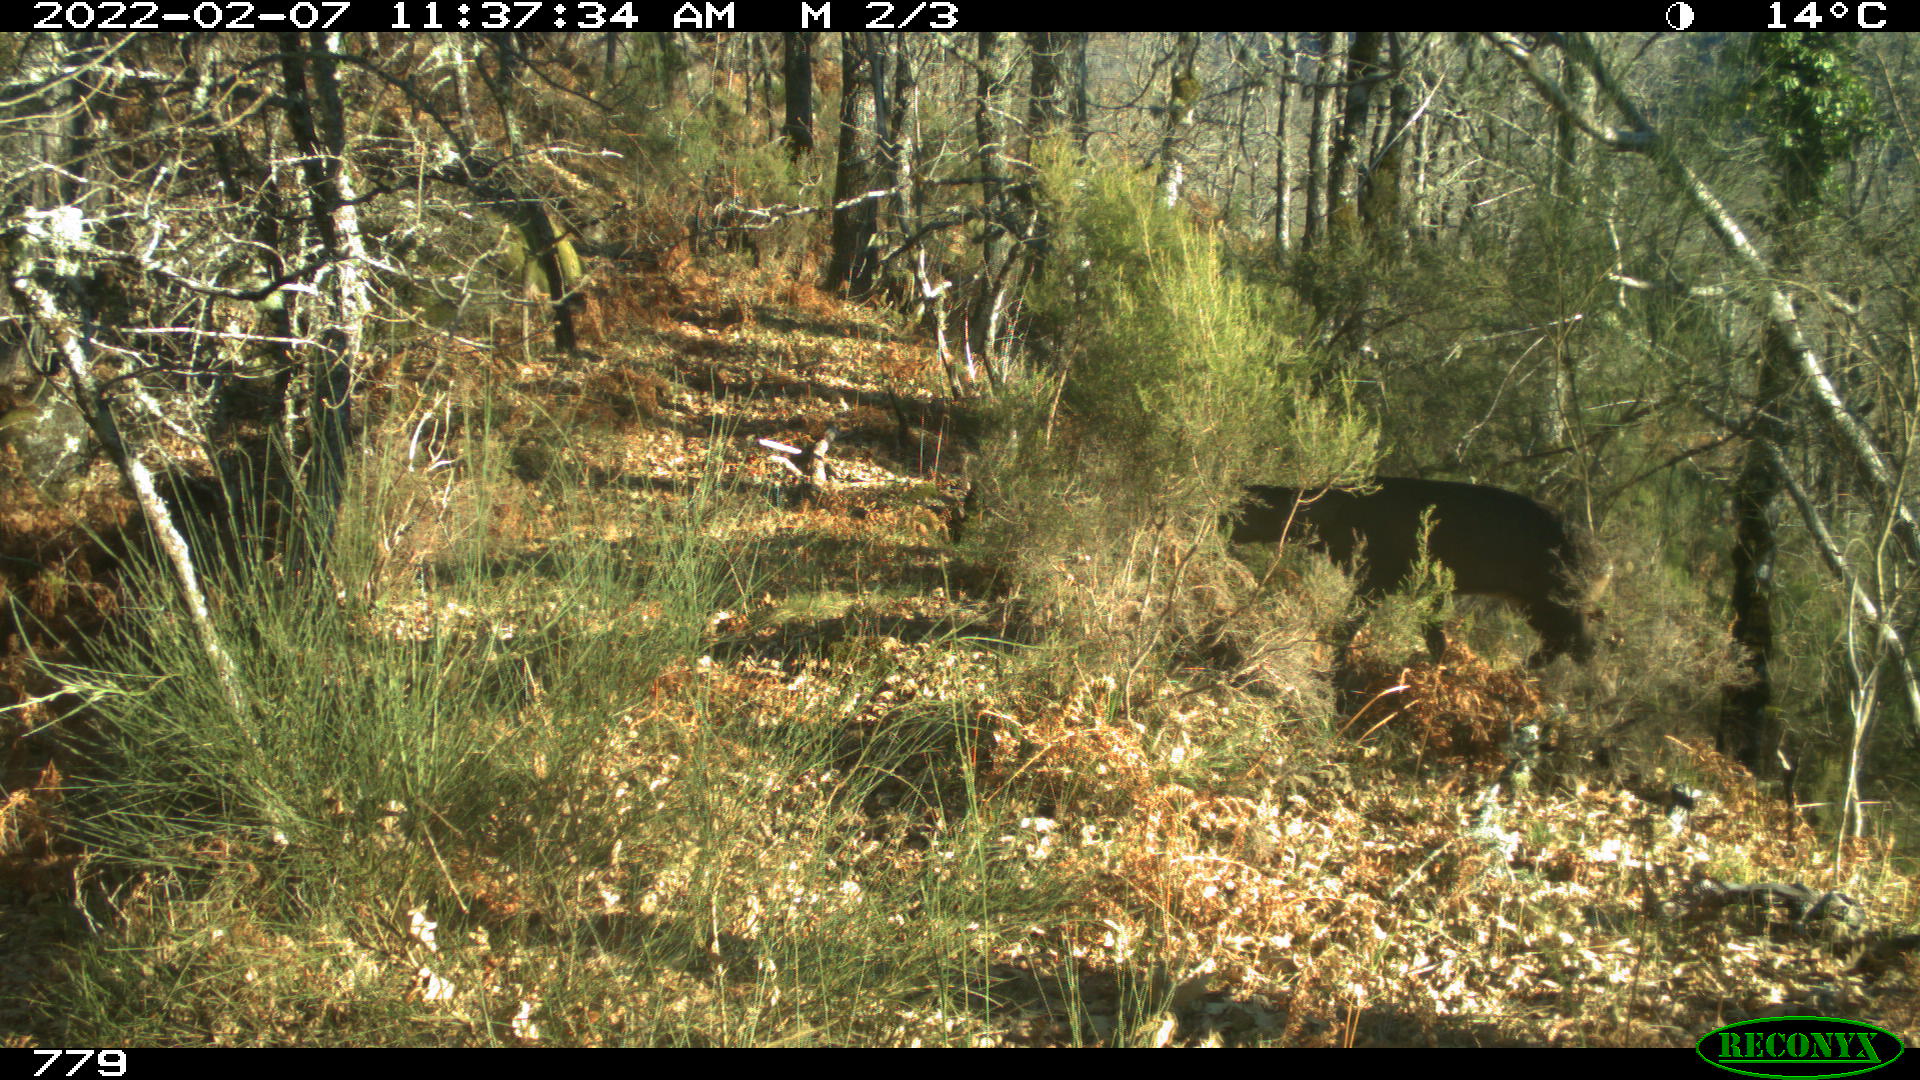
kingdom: Animalia
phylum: Chordata
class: Mammalia
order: Artiodactyla
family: Cervidae
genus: Capreolus
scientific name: Capreolus capreolus
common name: Western roe deer
